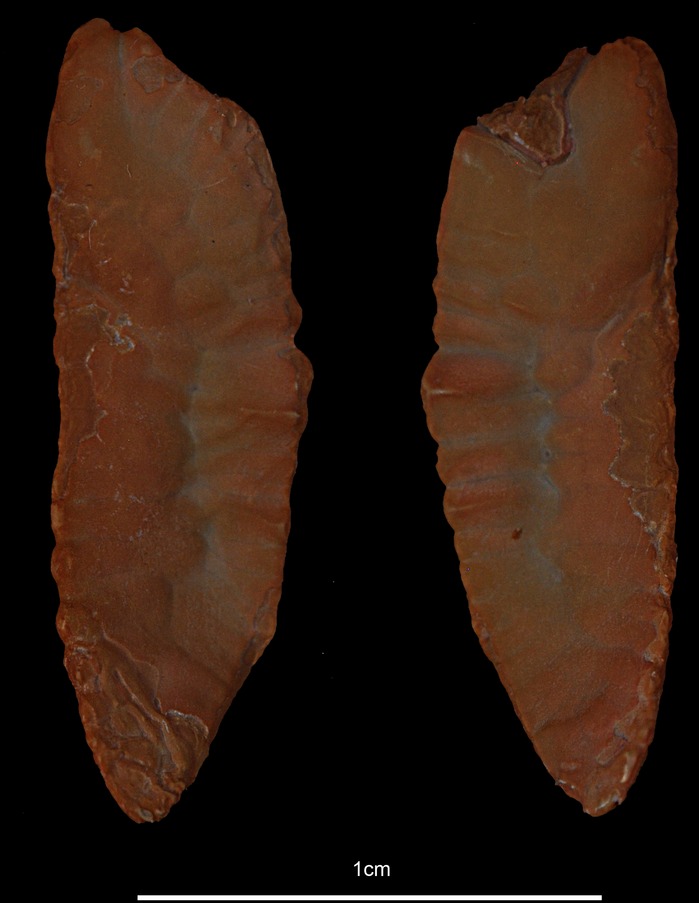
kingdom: Animalia
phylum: Chordata
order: Gadiformes
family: Gadidae
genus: Pollachius
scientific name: Pollachius virens
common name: Saithe
